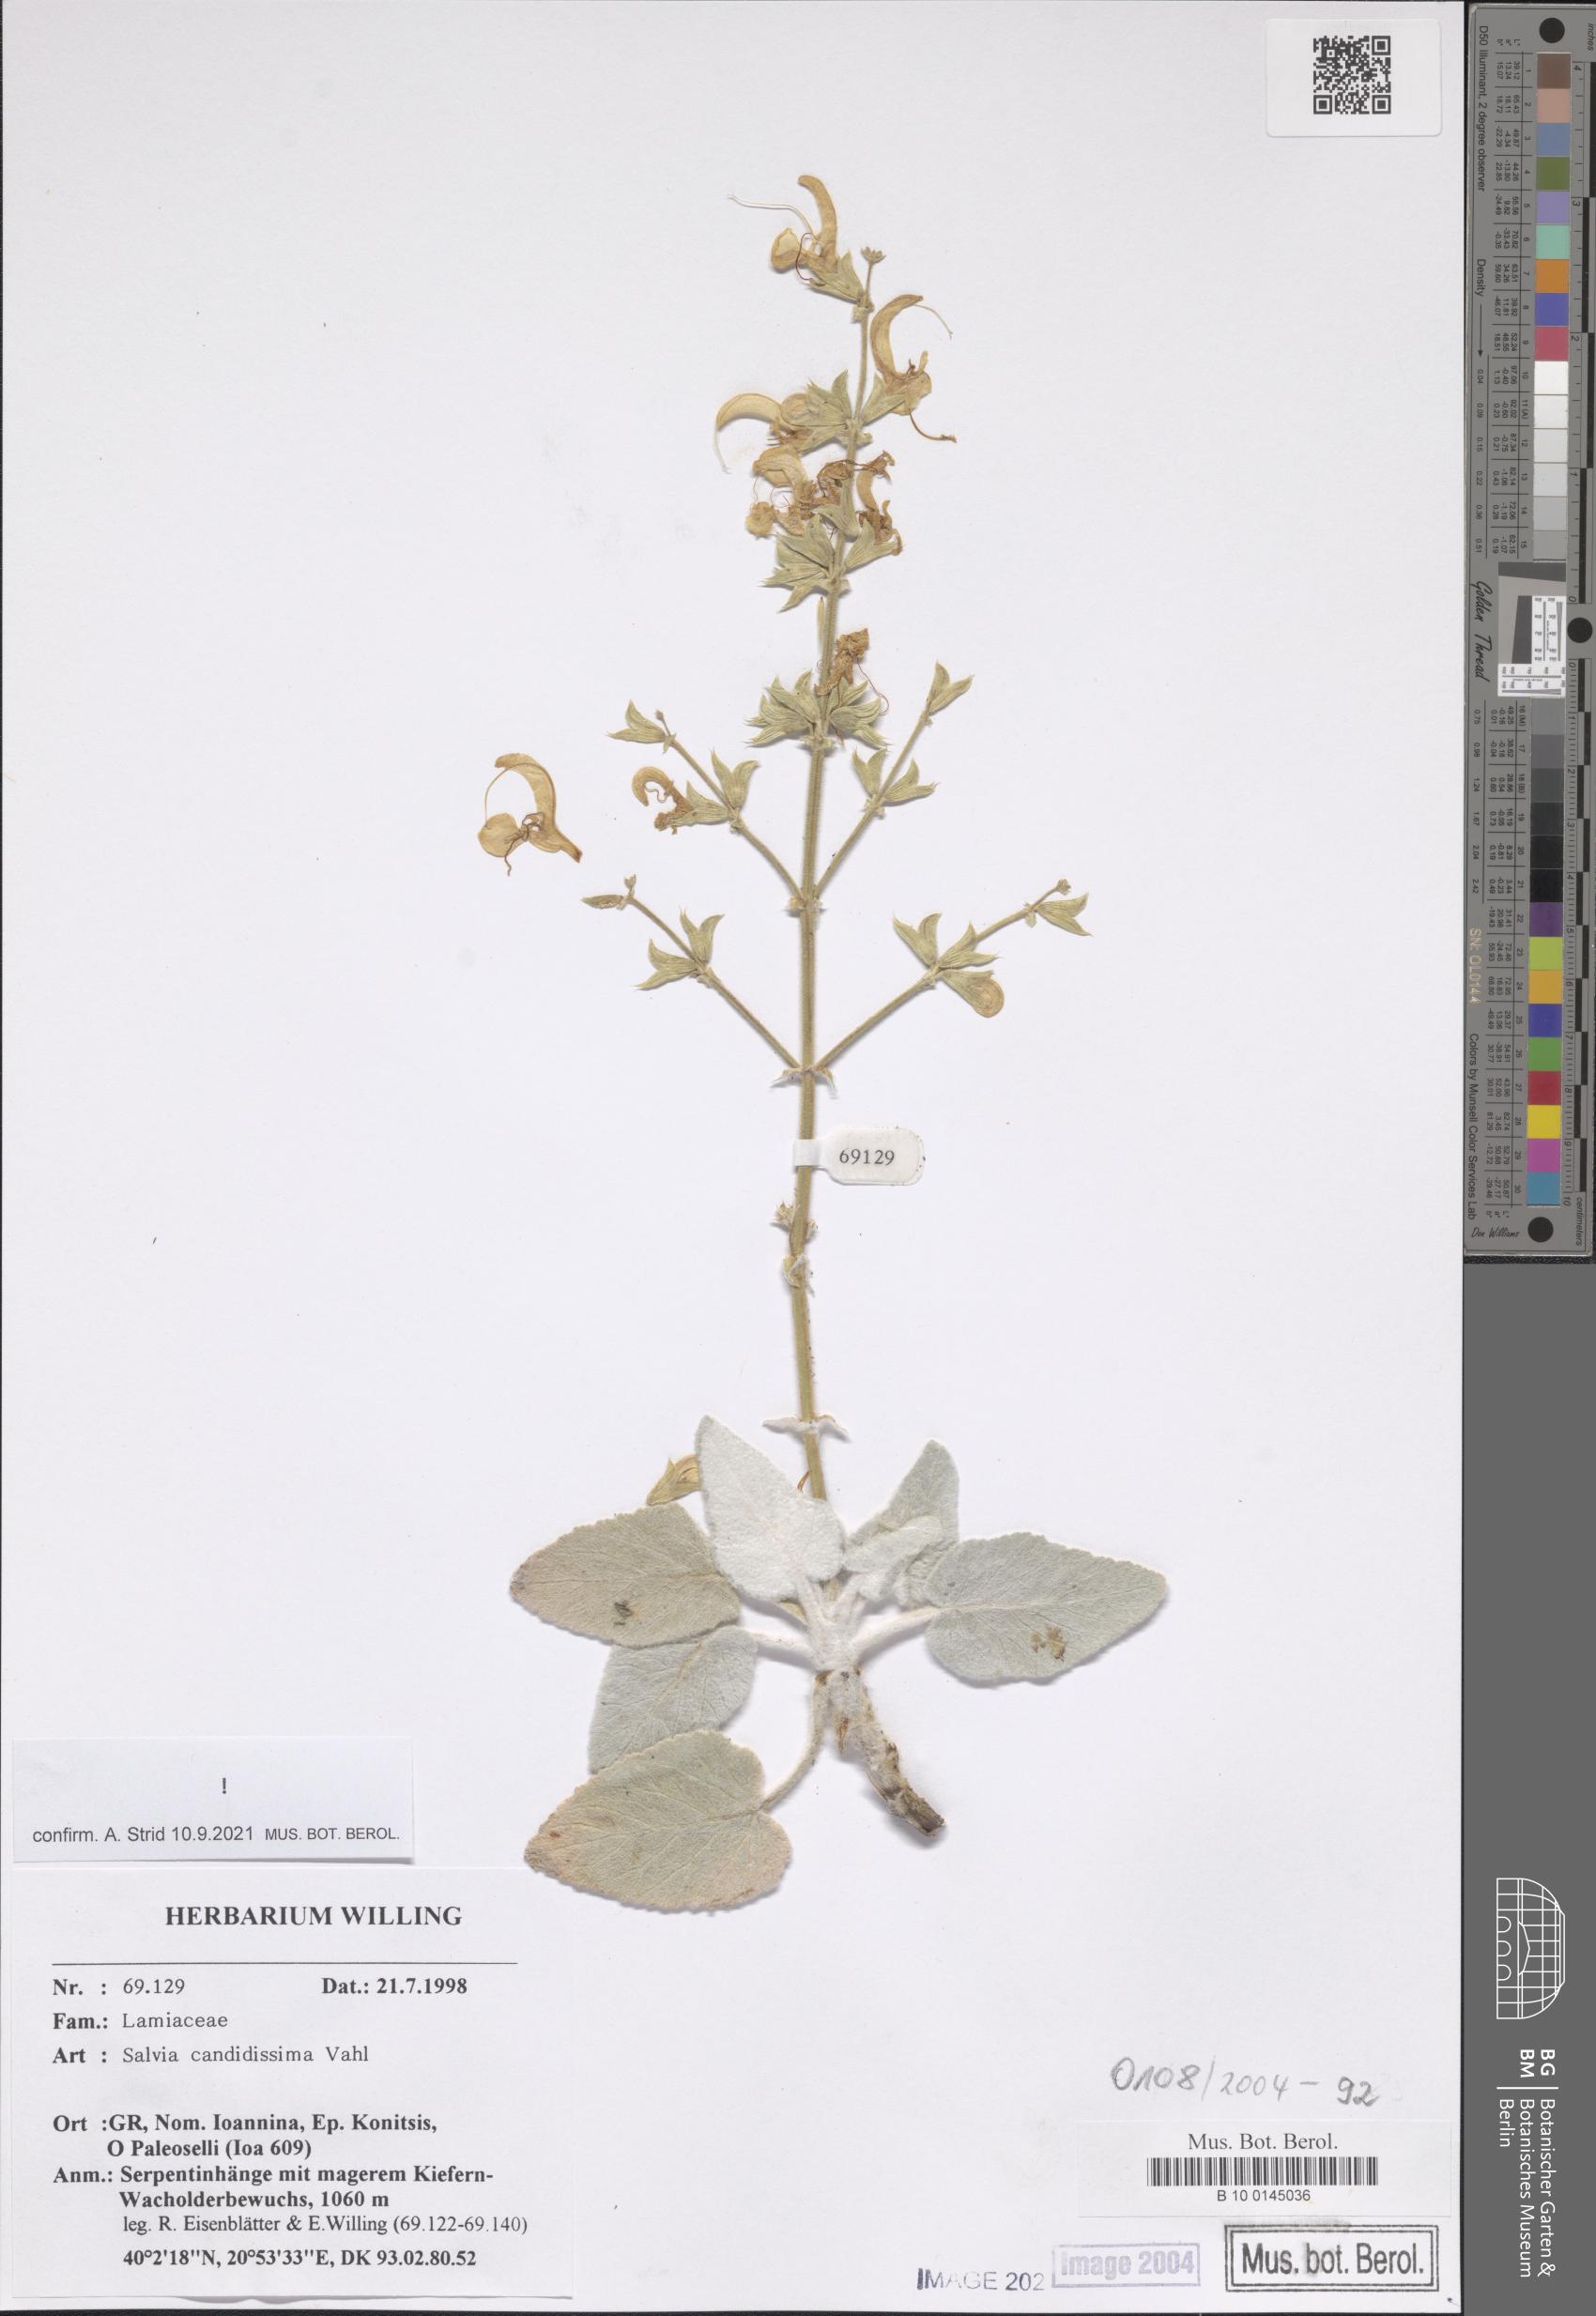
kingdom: Plantae
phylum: Tracheophyta
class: Magnoliopsida
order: Lamiales
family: Lamiaceae
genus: Salvia
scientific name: Salvia candidissima
